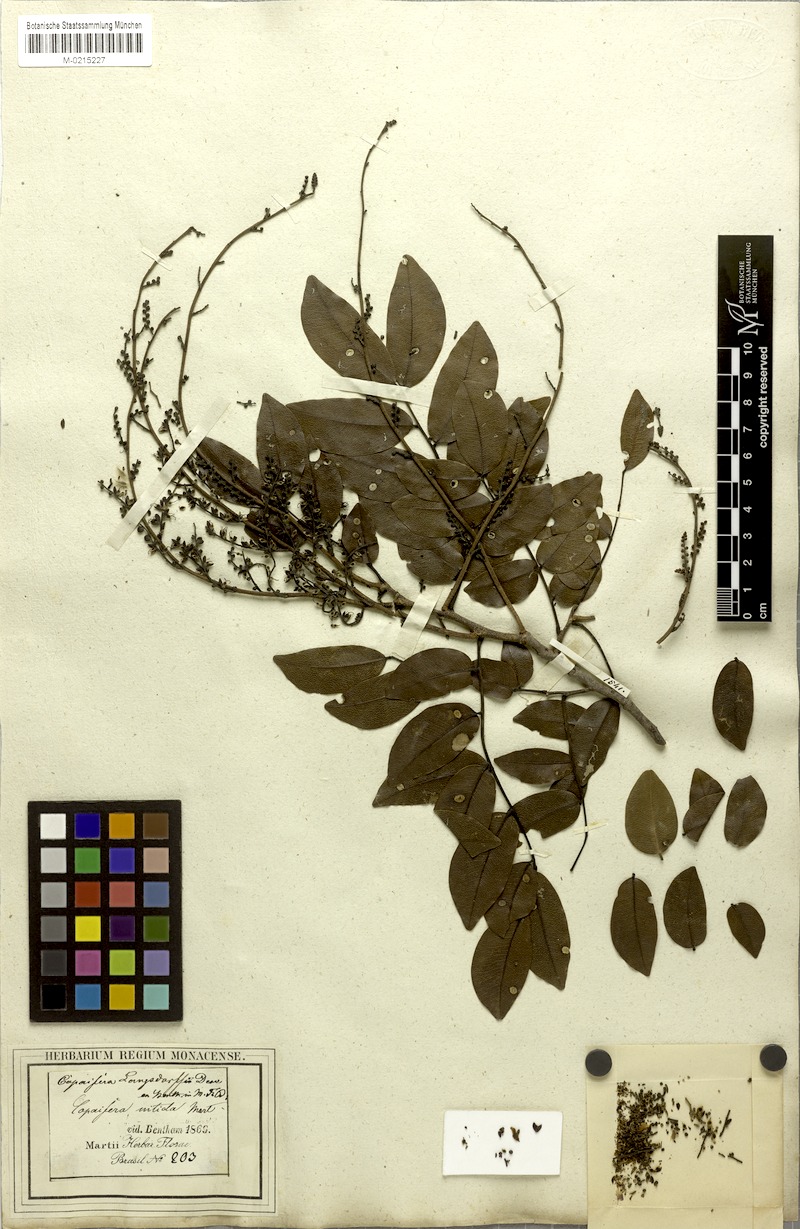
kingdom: Plantae
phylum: Tracheophyta
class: Magnoliopsida
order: Fabales
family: Fabaceae
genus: Copaifera
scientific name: Copaifera langsdorffii
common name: Brazilian diesel tree
